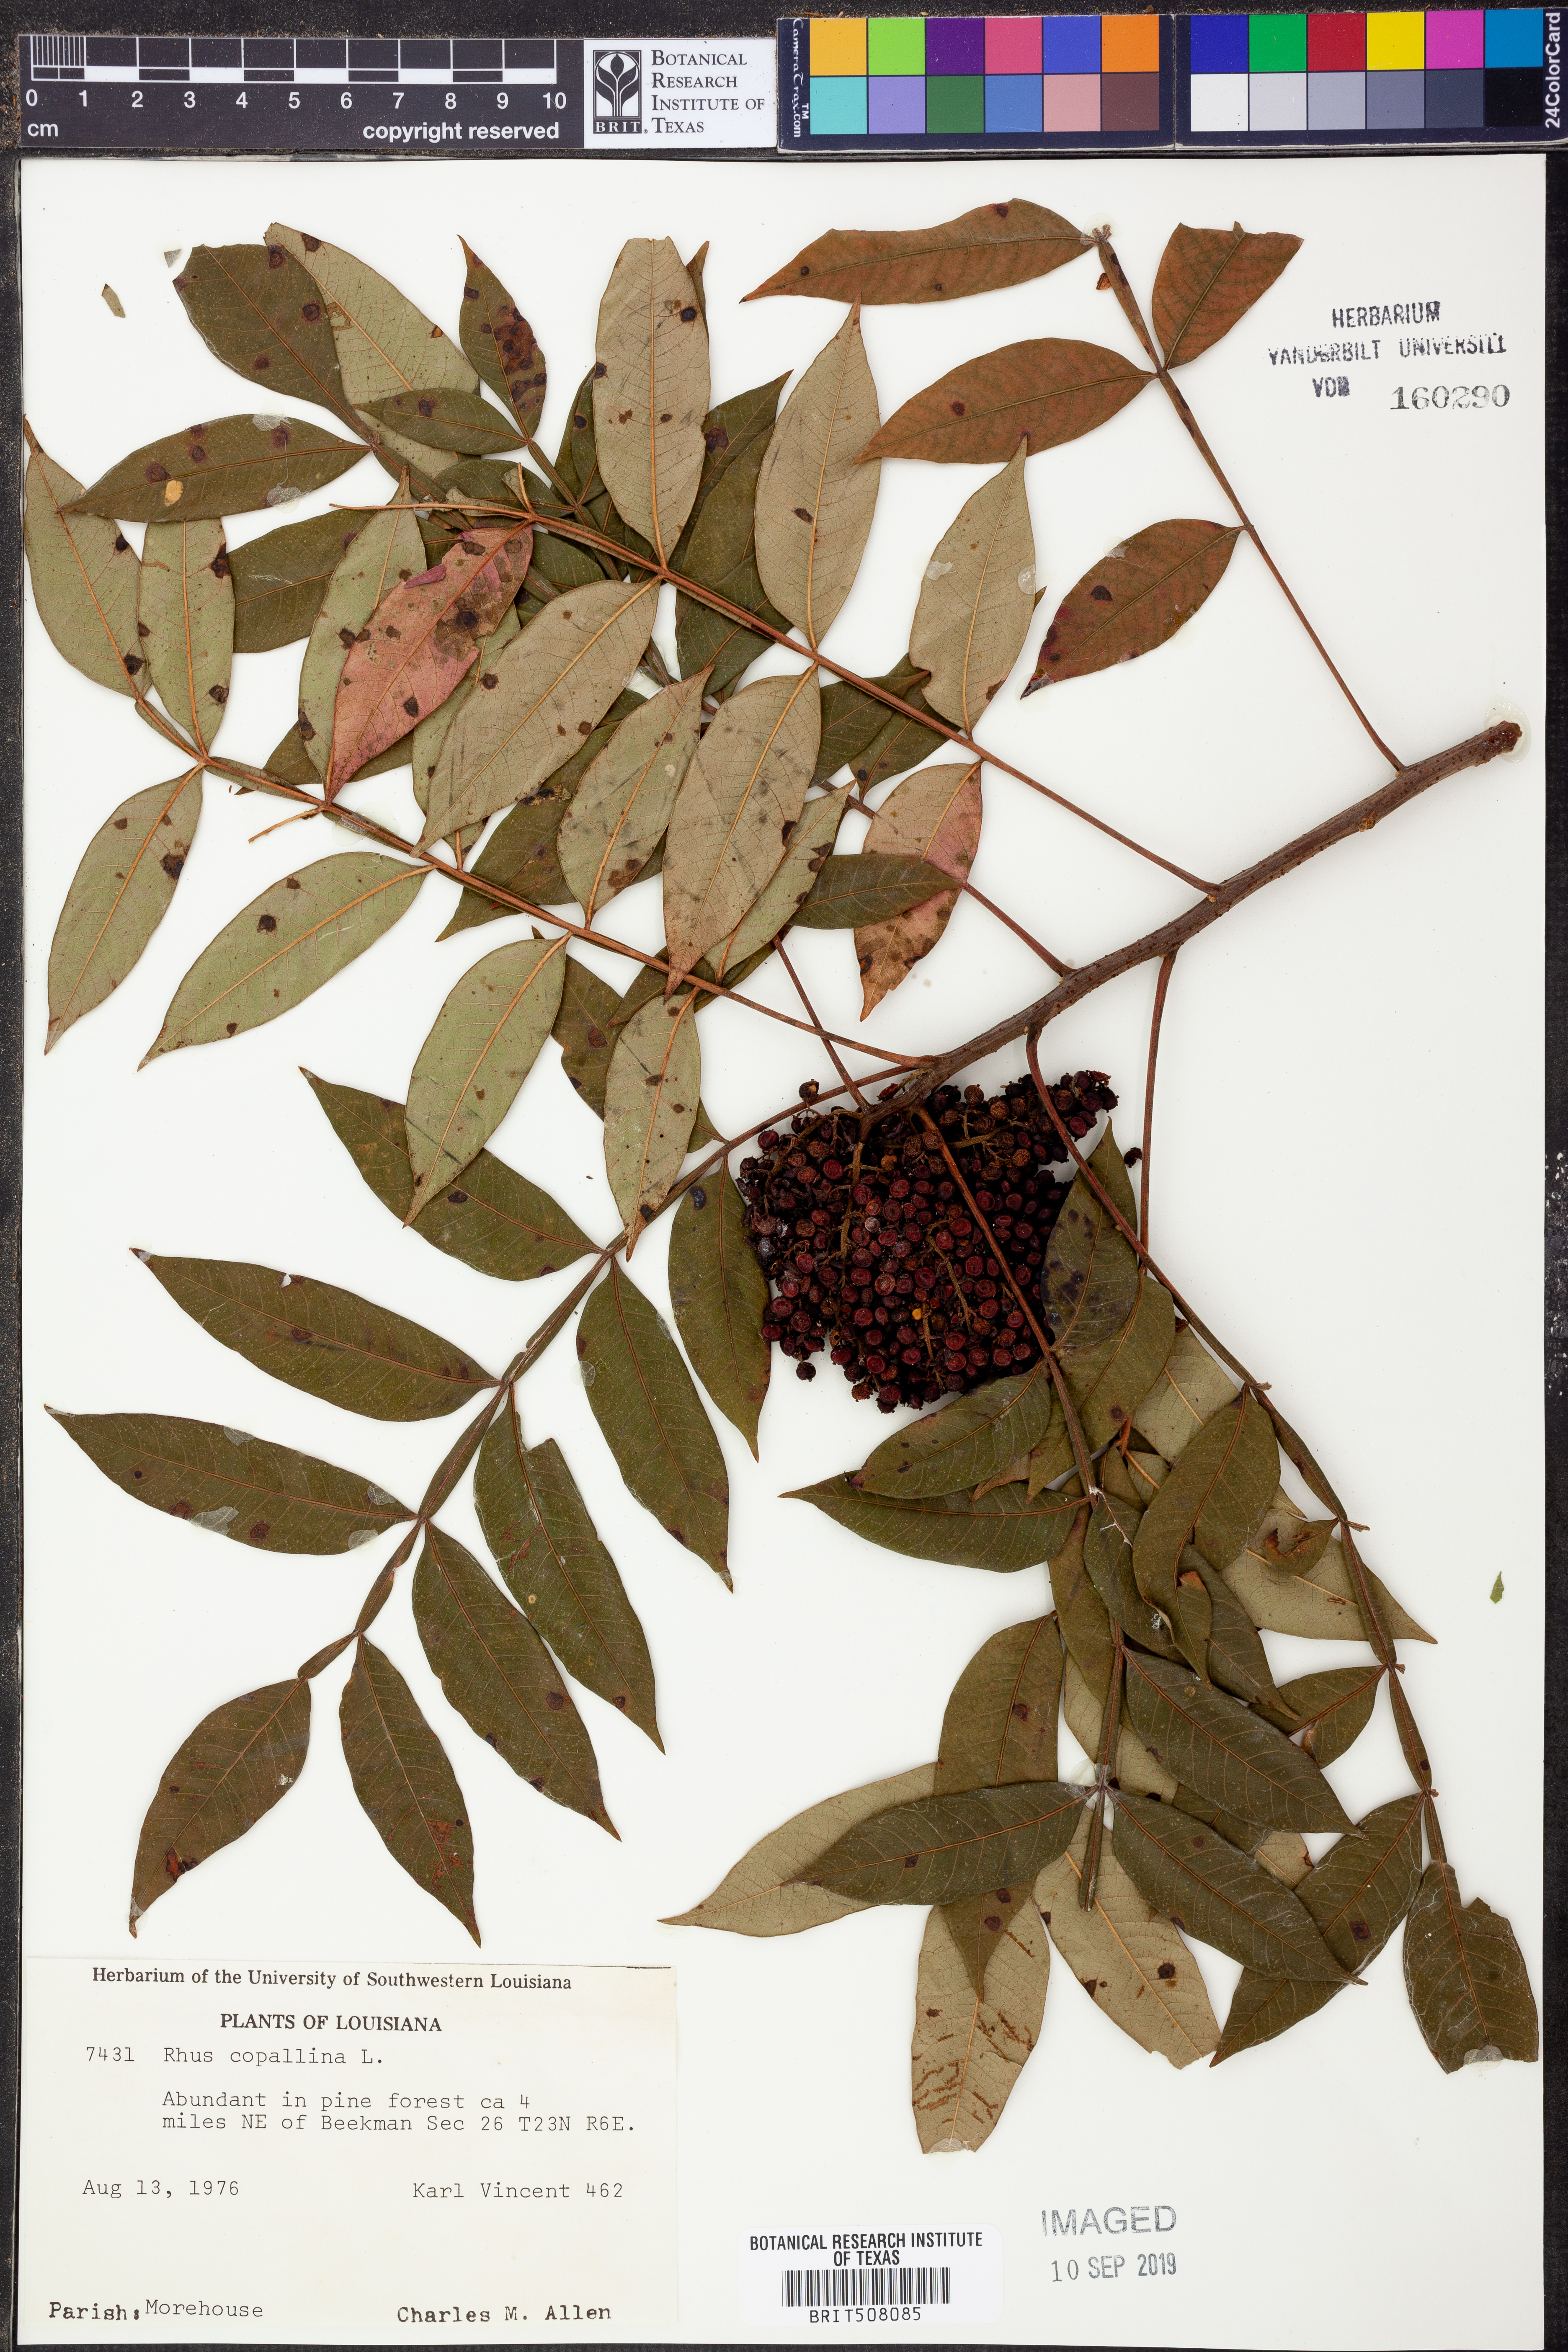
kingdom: Plantae
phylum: Tracheophyta
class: Magnoliopsida
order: Sapindales
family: Anacardiaceae
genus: Rhus
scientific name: Rhus copallina
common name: Shining sumac
